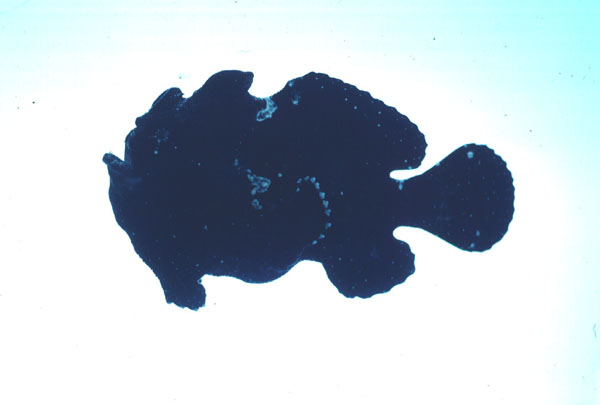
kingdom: Animalia
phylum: Chordata
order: Lophiiformes
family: Antennariidae
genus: Antennarius
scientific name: Antennarius commerson
